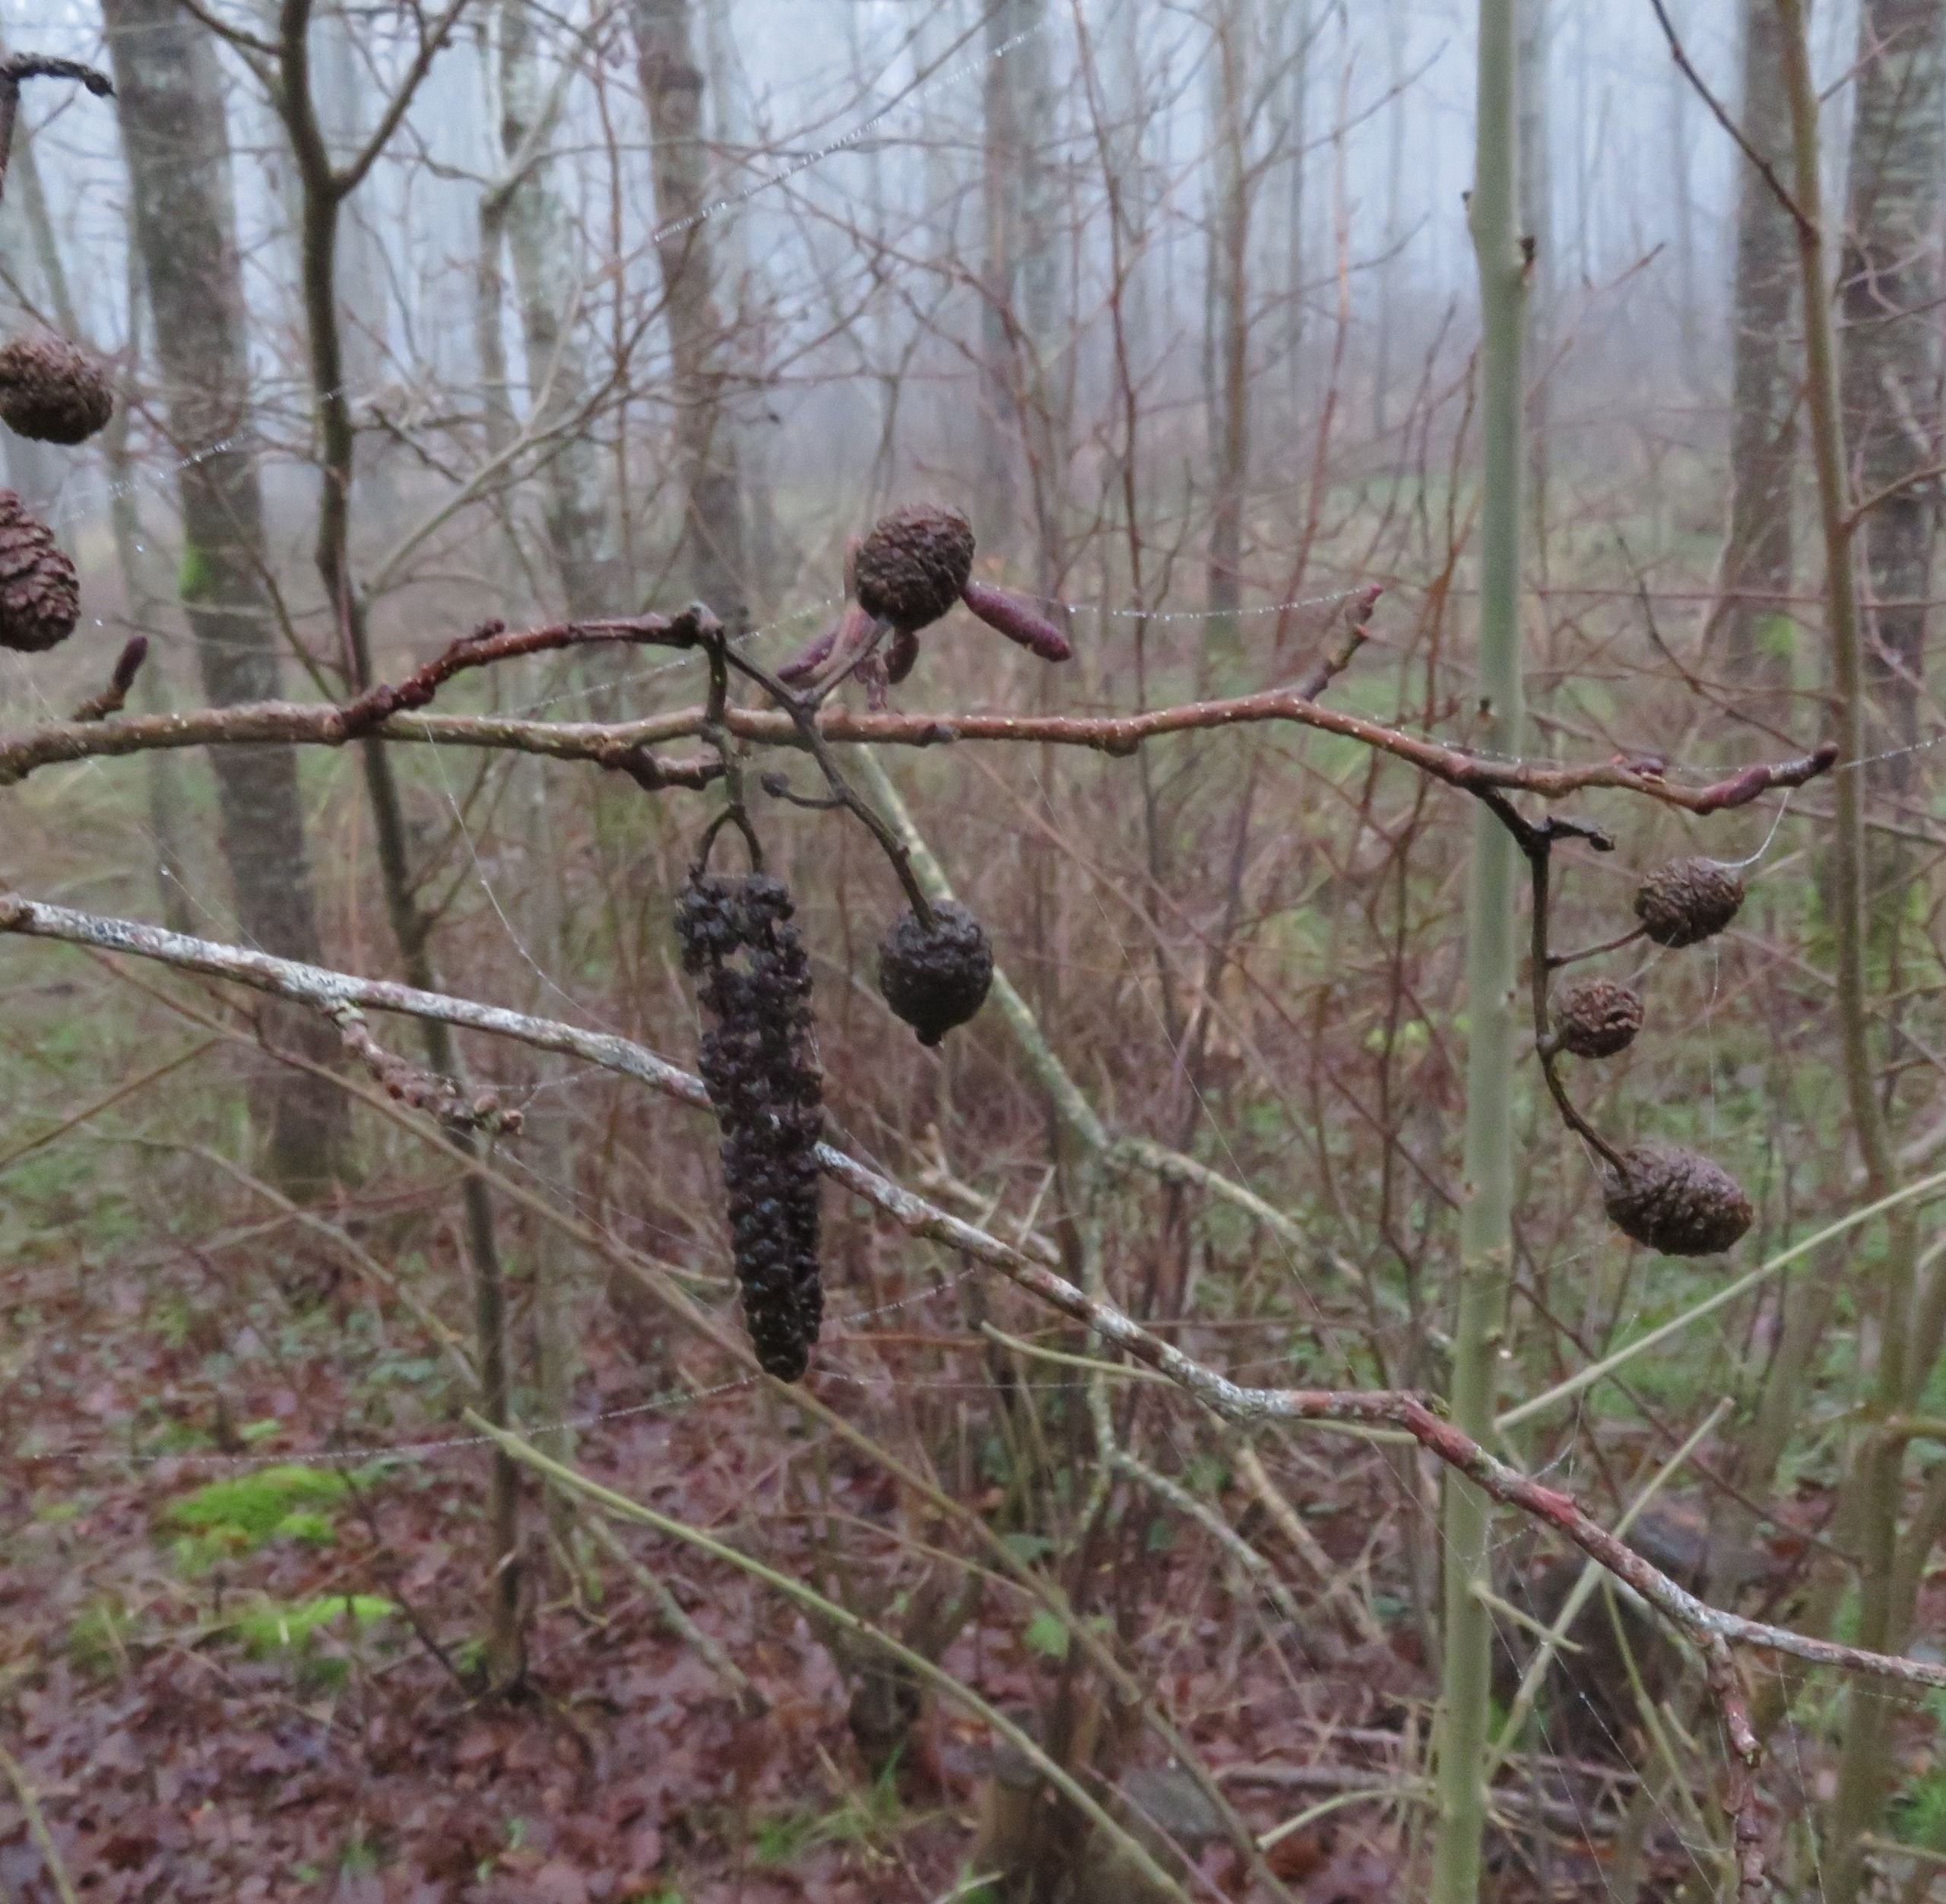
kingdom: Plantae
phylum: Tracheophyta
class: Magnoliopsida
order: Fagales
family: Betulaceae
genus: Alnus
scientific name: Alnus glutinosa
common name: Rød-el
